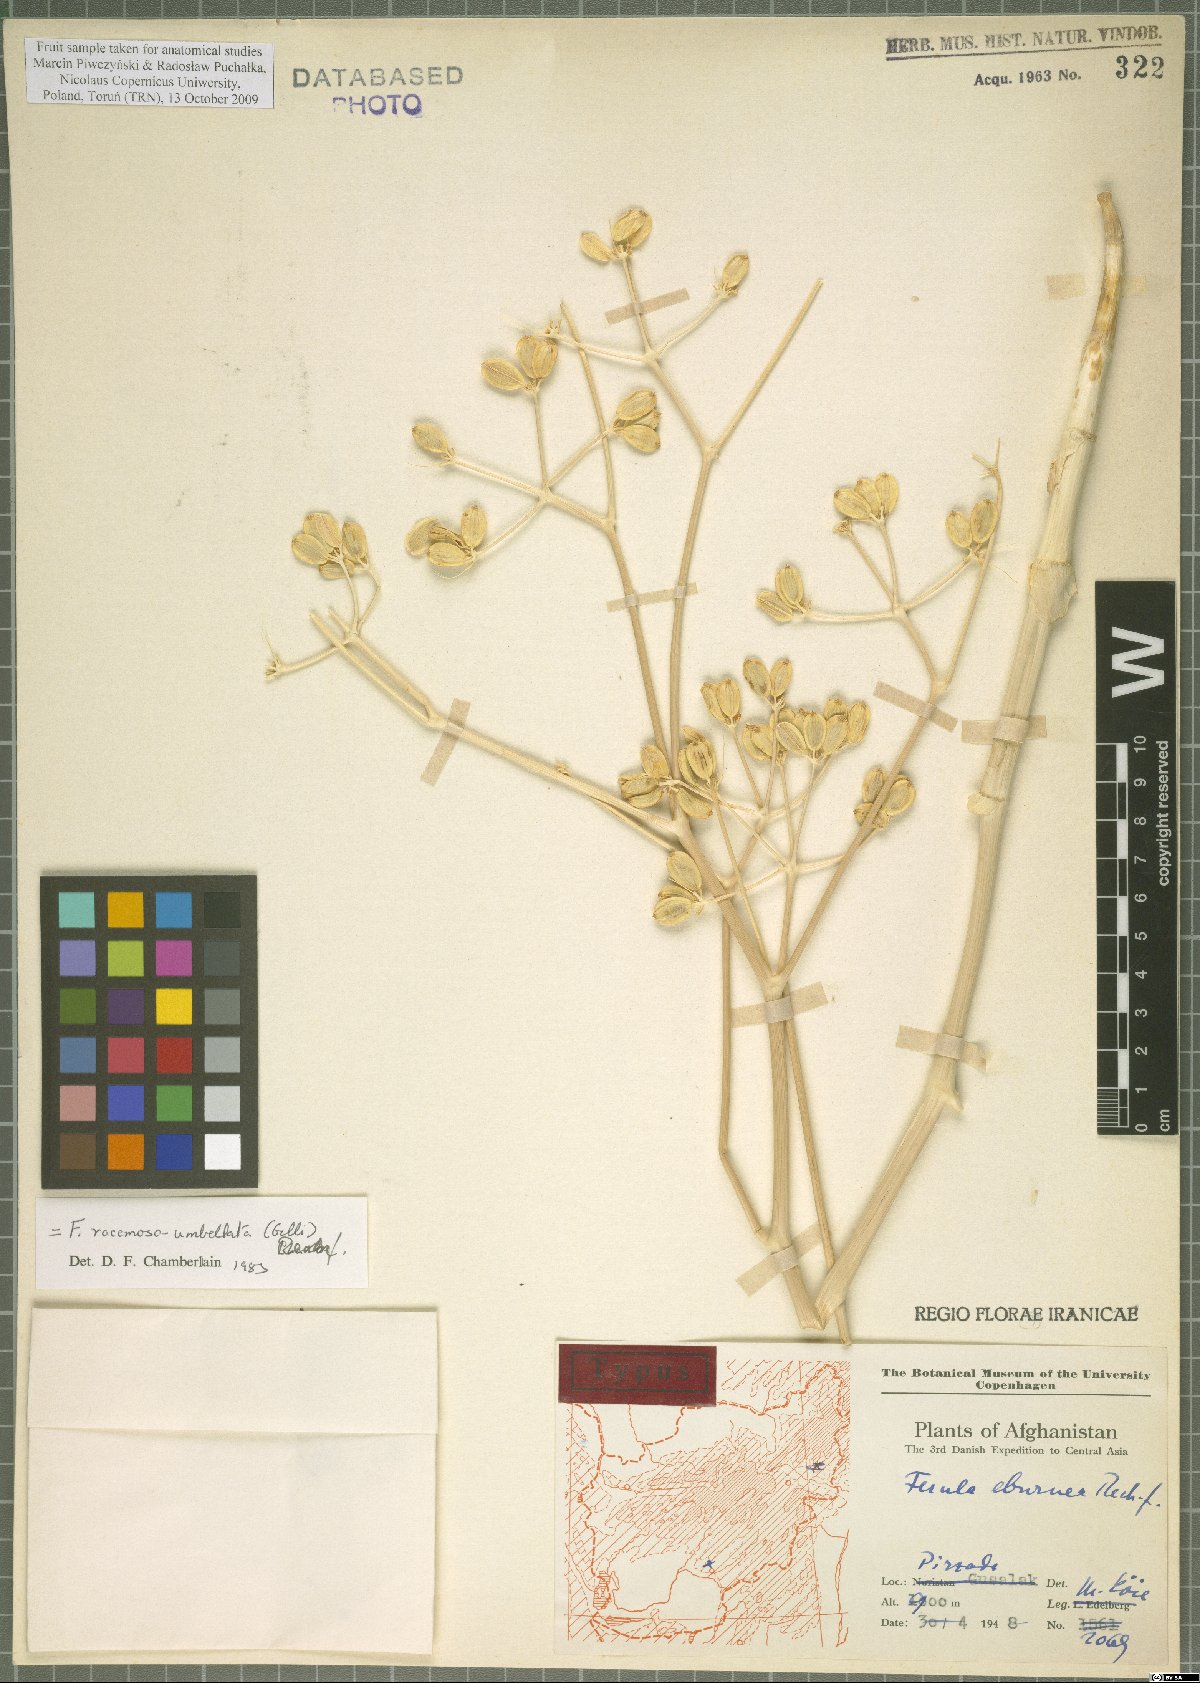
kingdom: Plantae
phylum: Tracheophyta
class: Magnoliopsida
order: Apiales
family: Apiaceae
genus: Ferula
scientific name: Ferula racemosoumbellata
